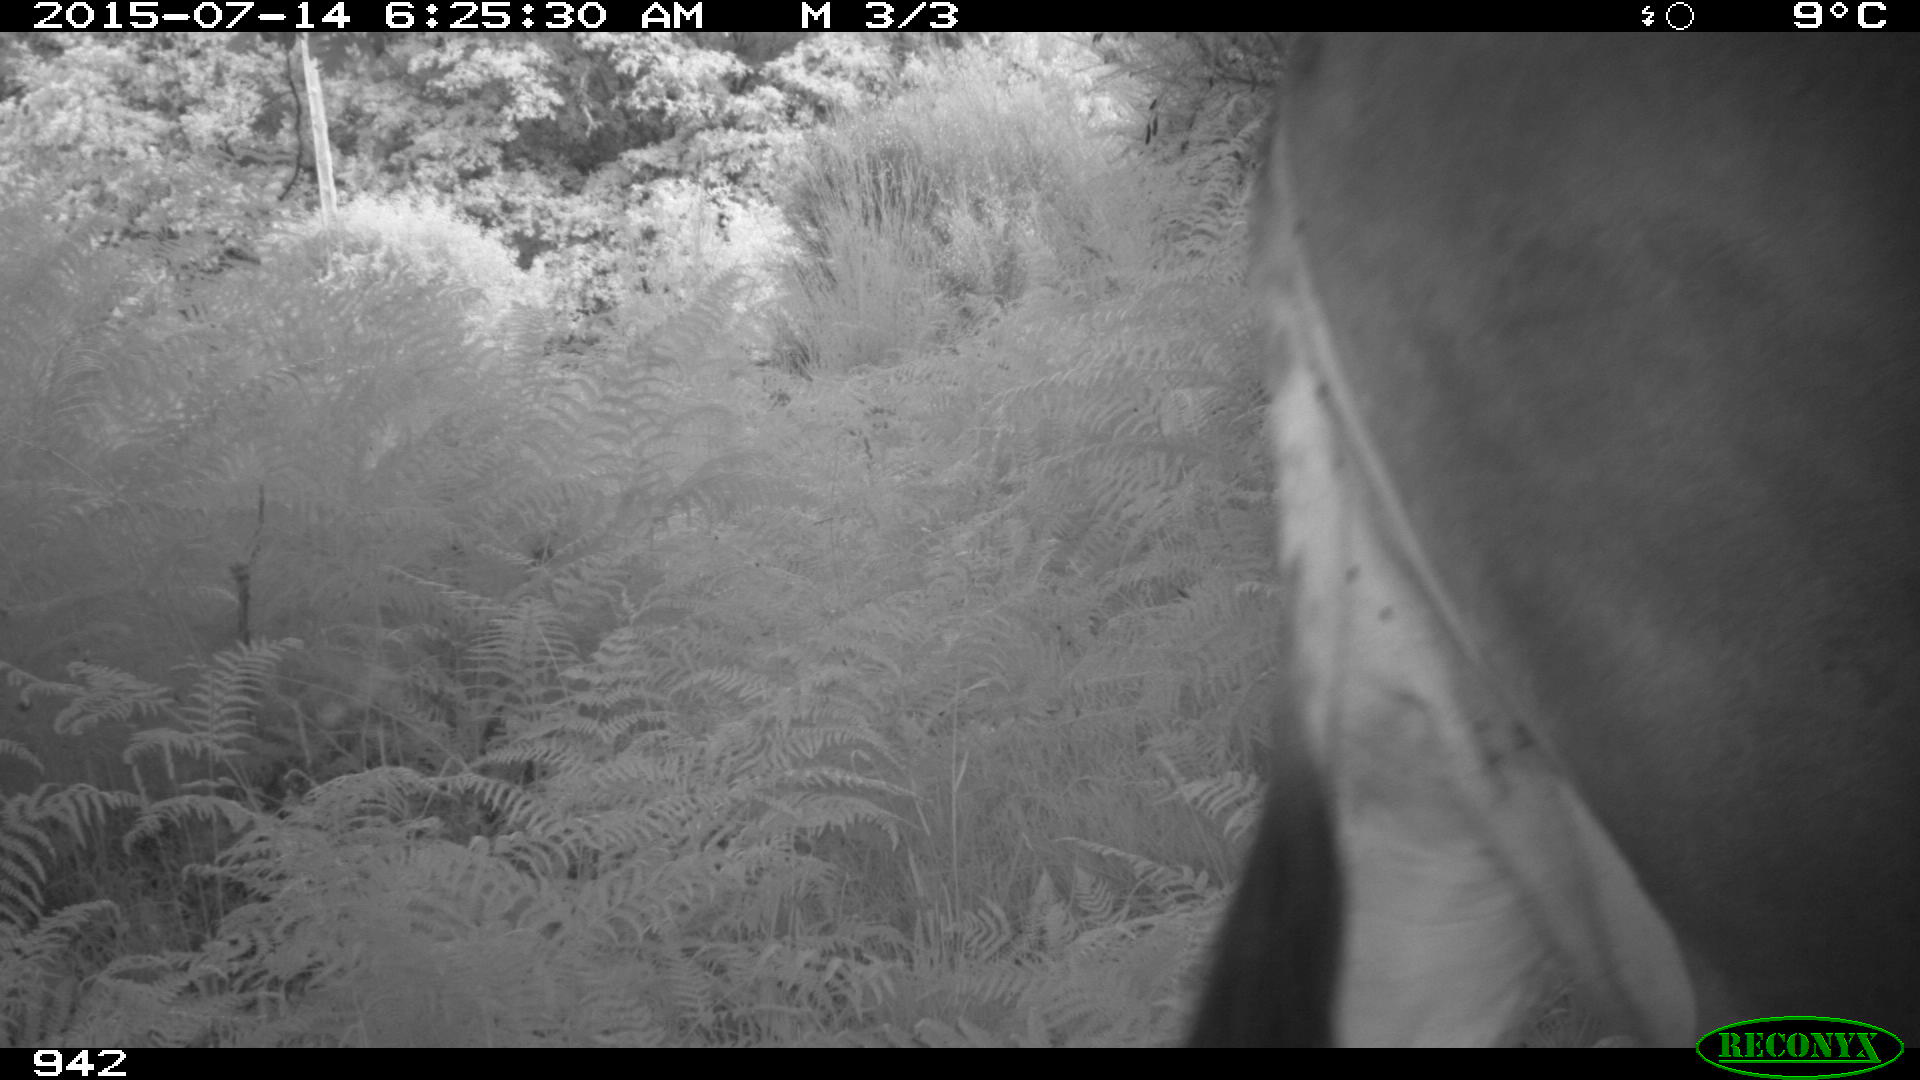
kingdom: Animalia
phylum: Chordata
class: Mammalia
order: Artiodactyla
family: Bovidae
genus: Bos
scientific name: Bos taurus
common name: Domesticated cattle
